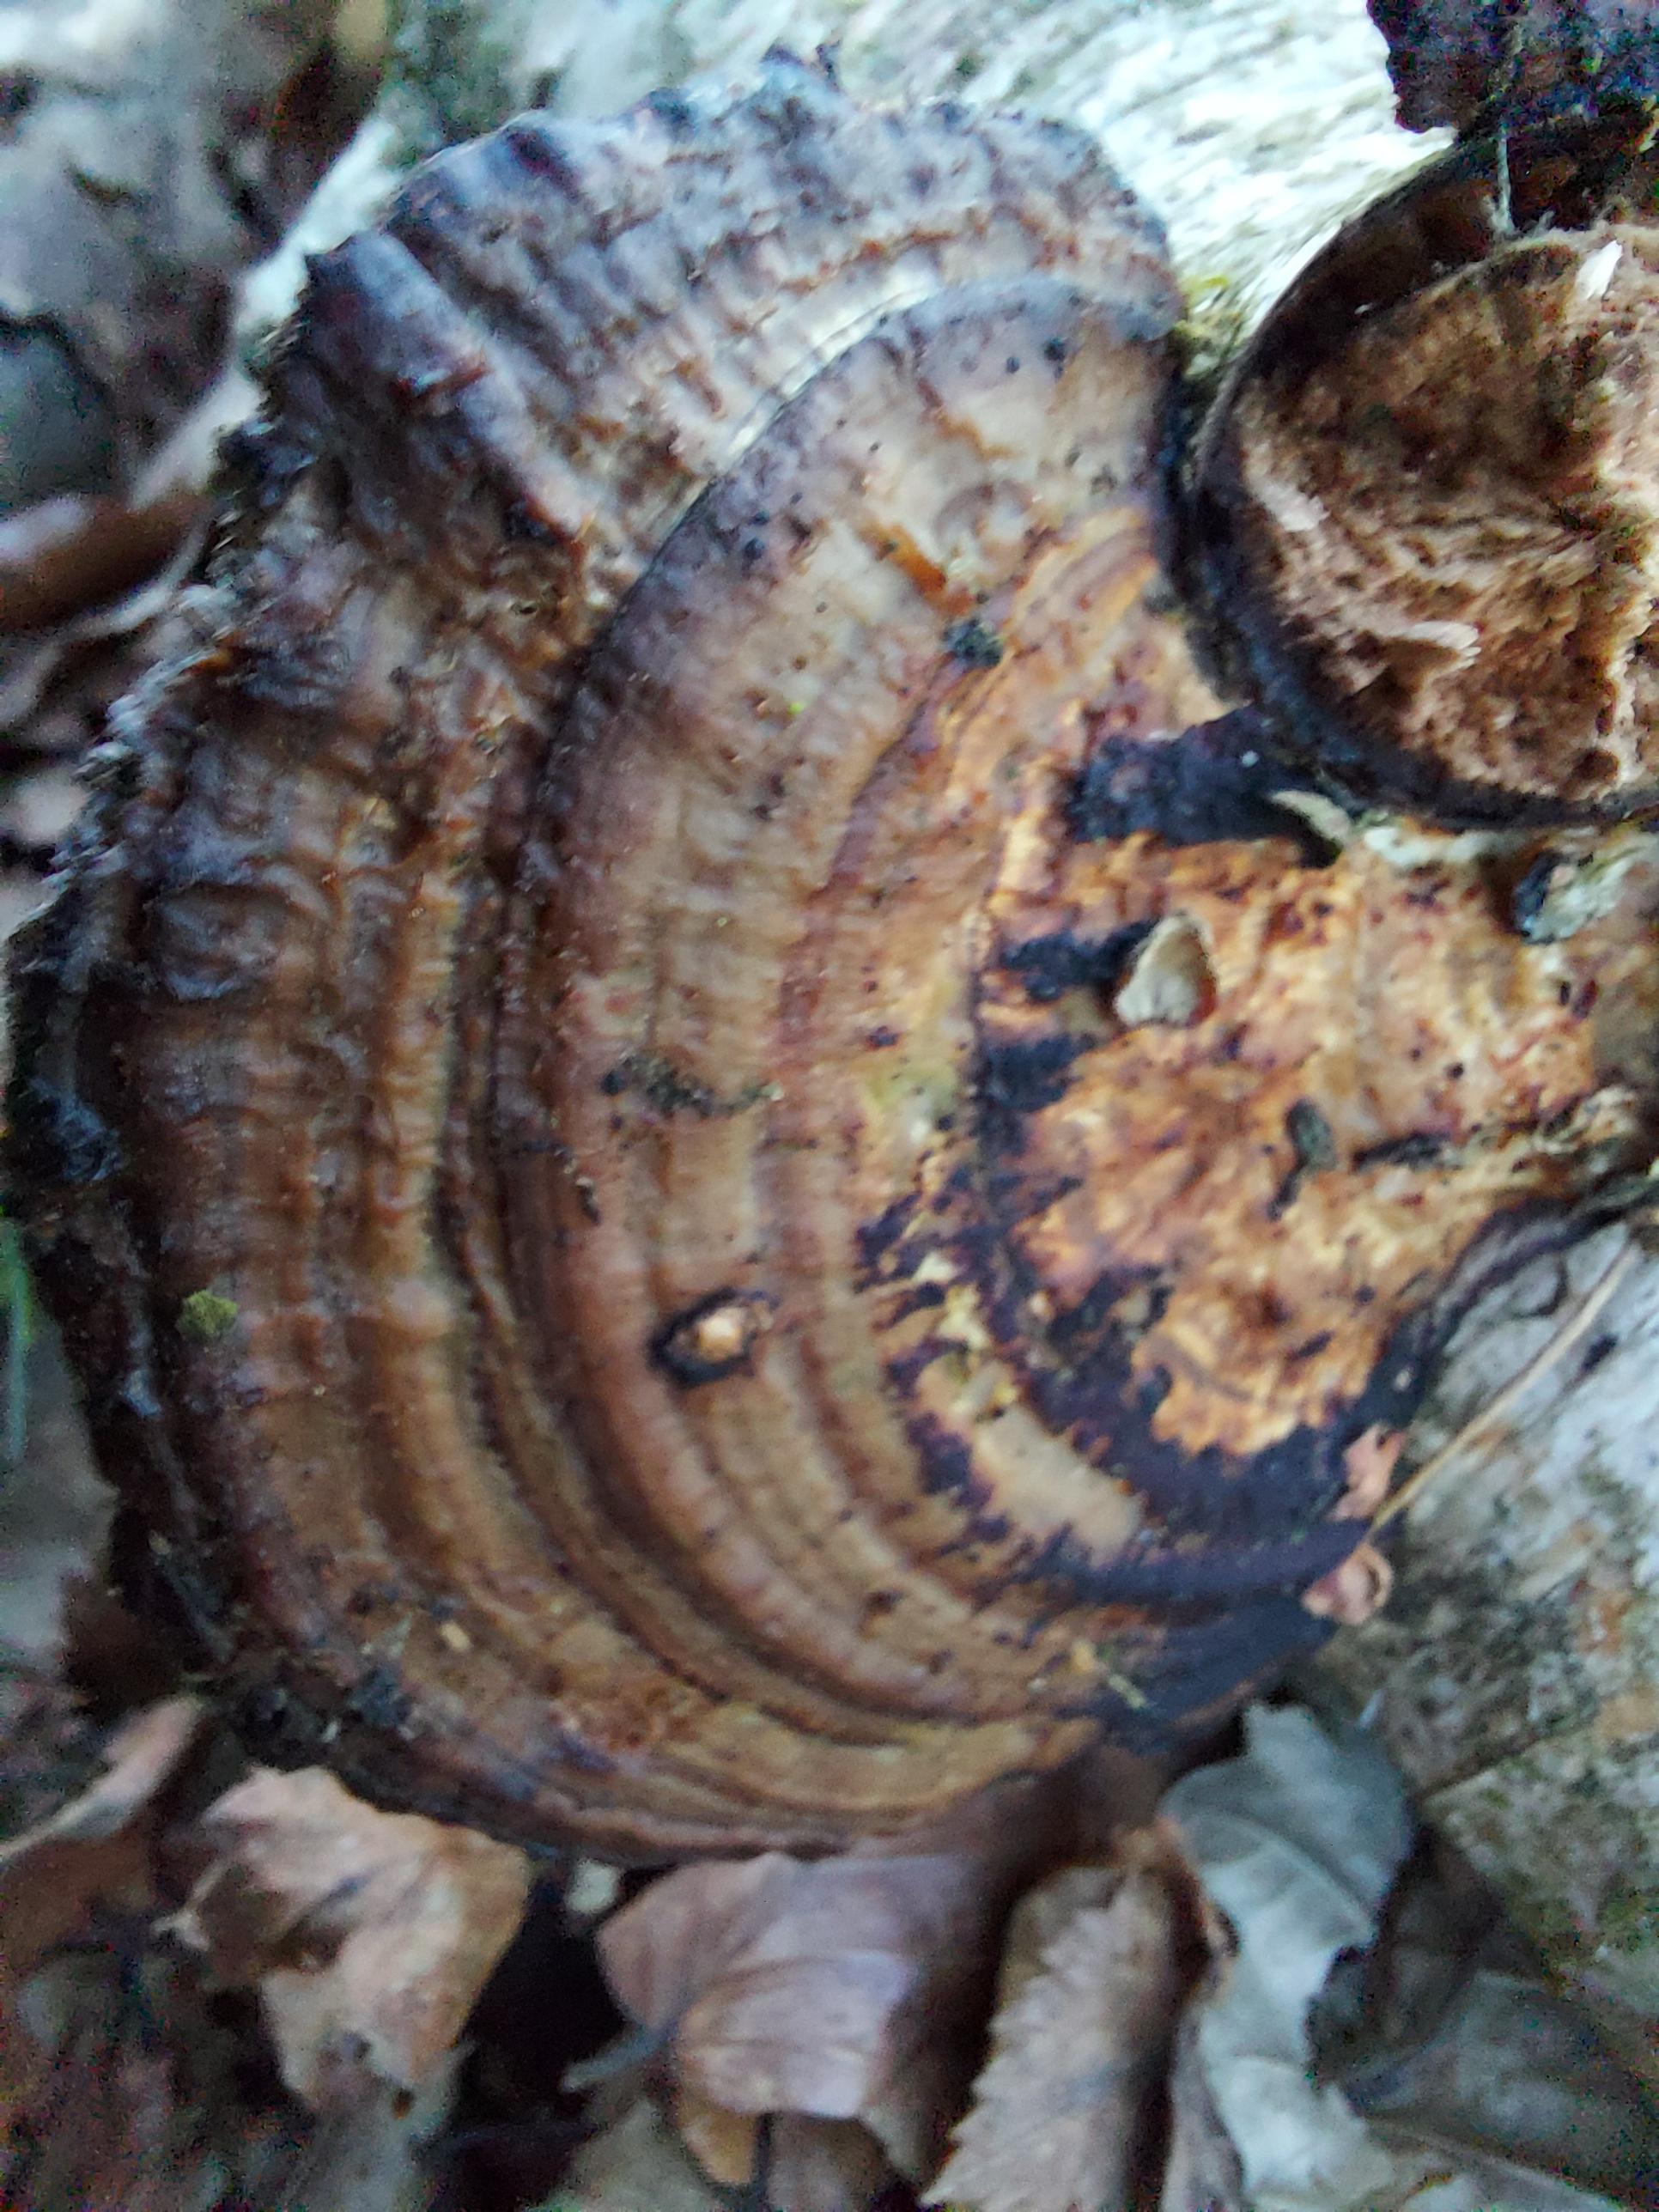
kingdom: Fungi
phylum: Basidiomycota
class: Agaricomycetes
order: Polyporales
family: Polyporaceae
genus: Daedaleopsis
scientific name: Daedaleopsis confragosa
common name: rødmende læderporesvamp
